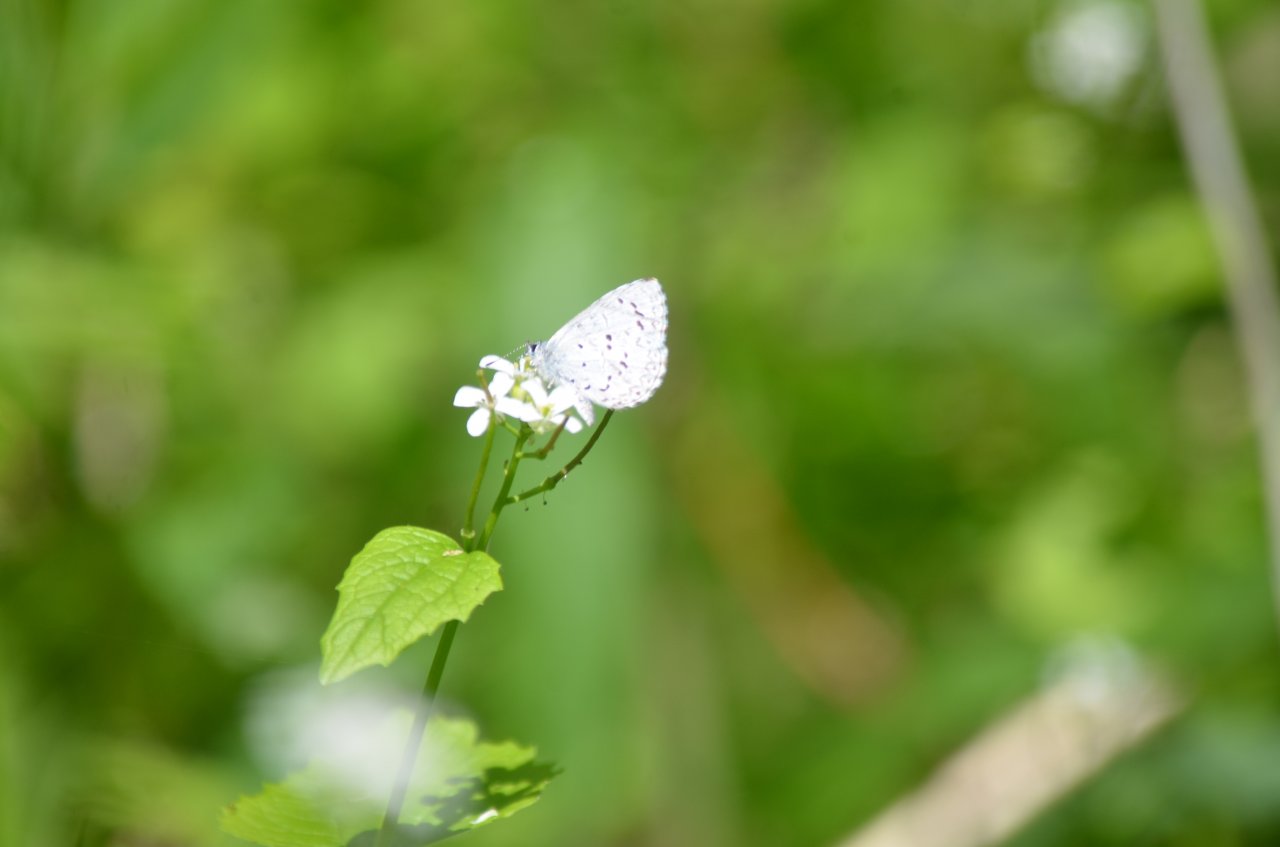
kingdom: Animalia
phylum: Arthropoda
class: Insecta
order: Lepidoptera
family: Lycaenidae
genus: Celastrina
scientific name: Celastrina lucia
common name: Northern Spring Azure
